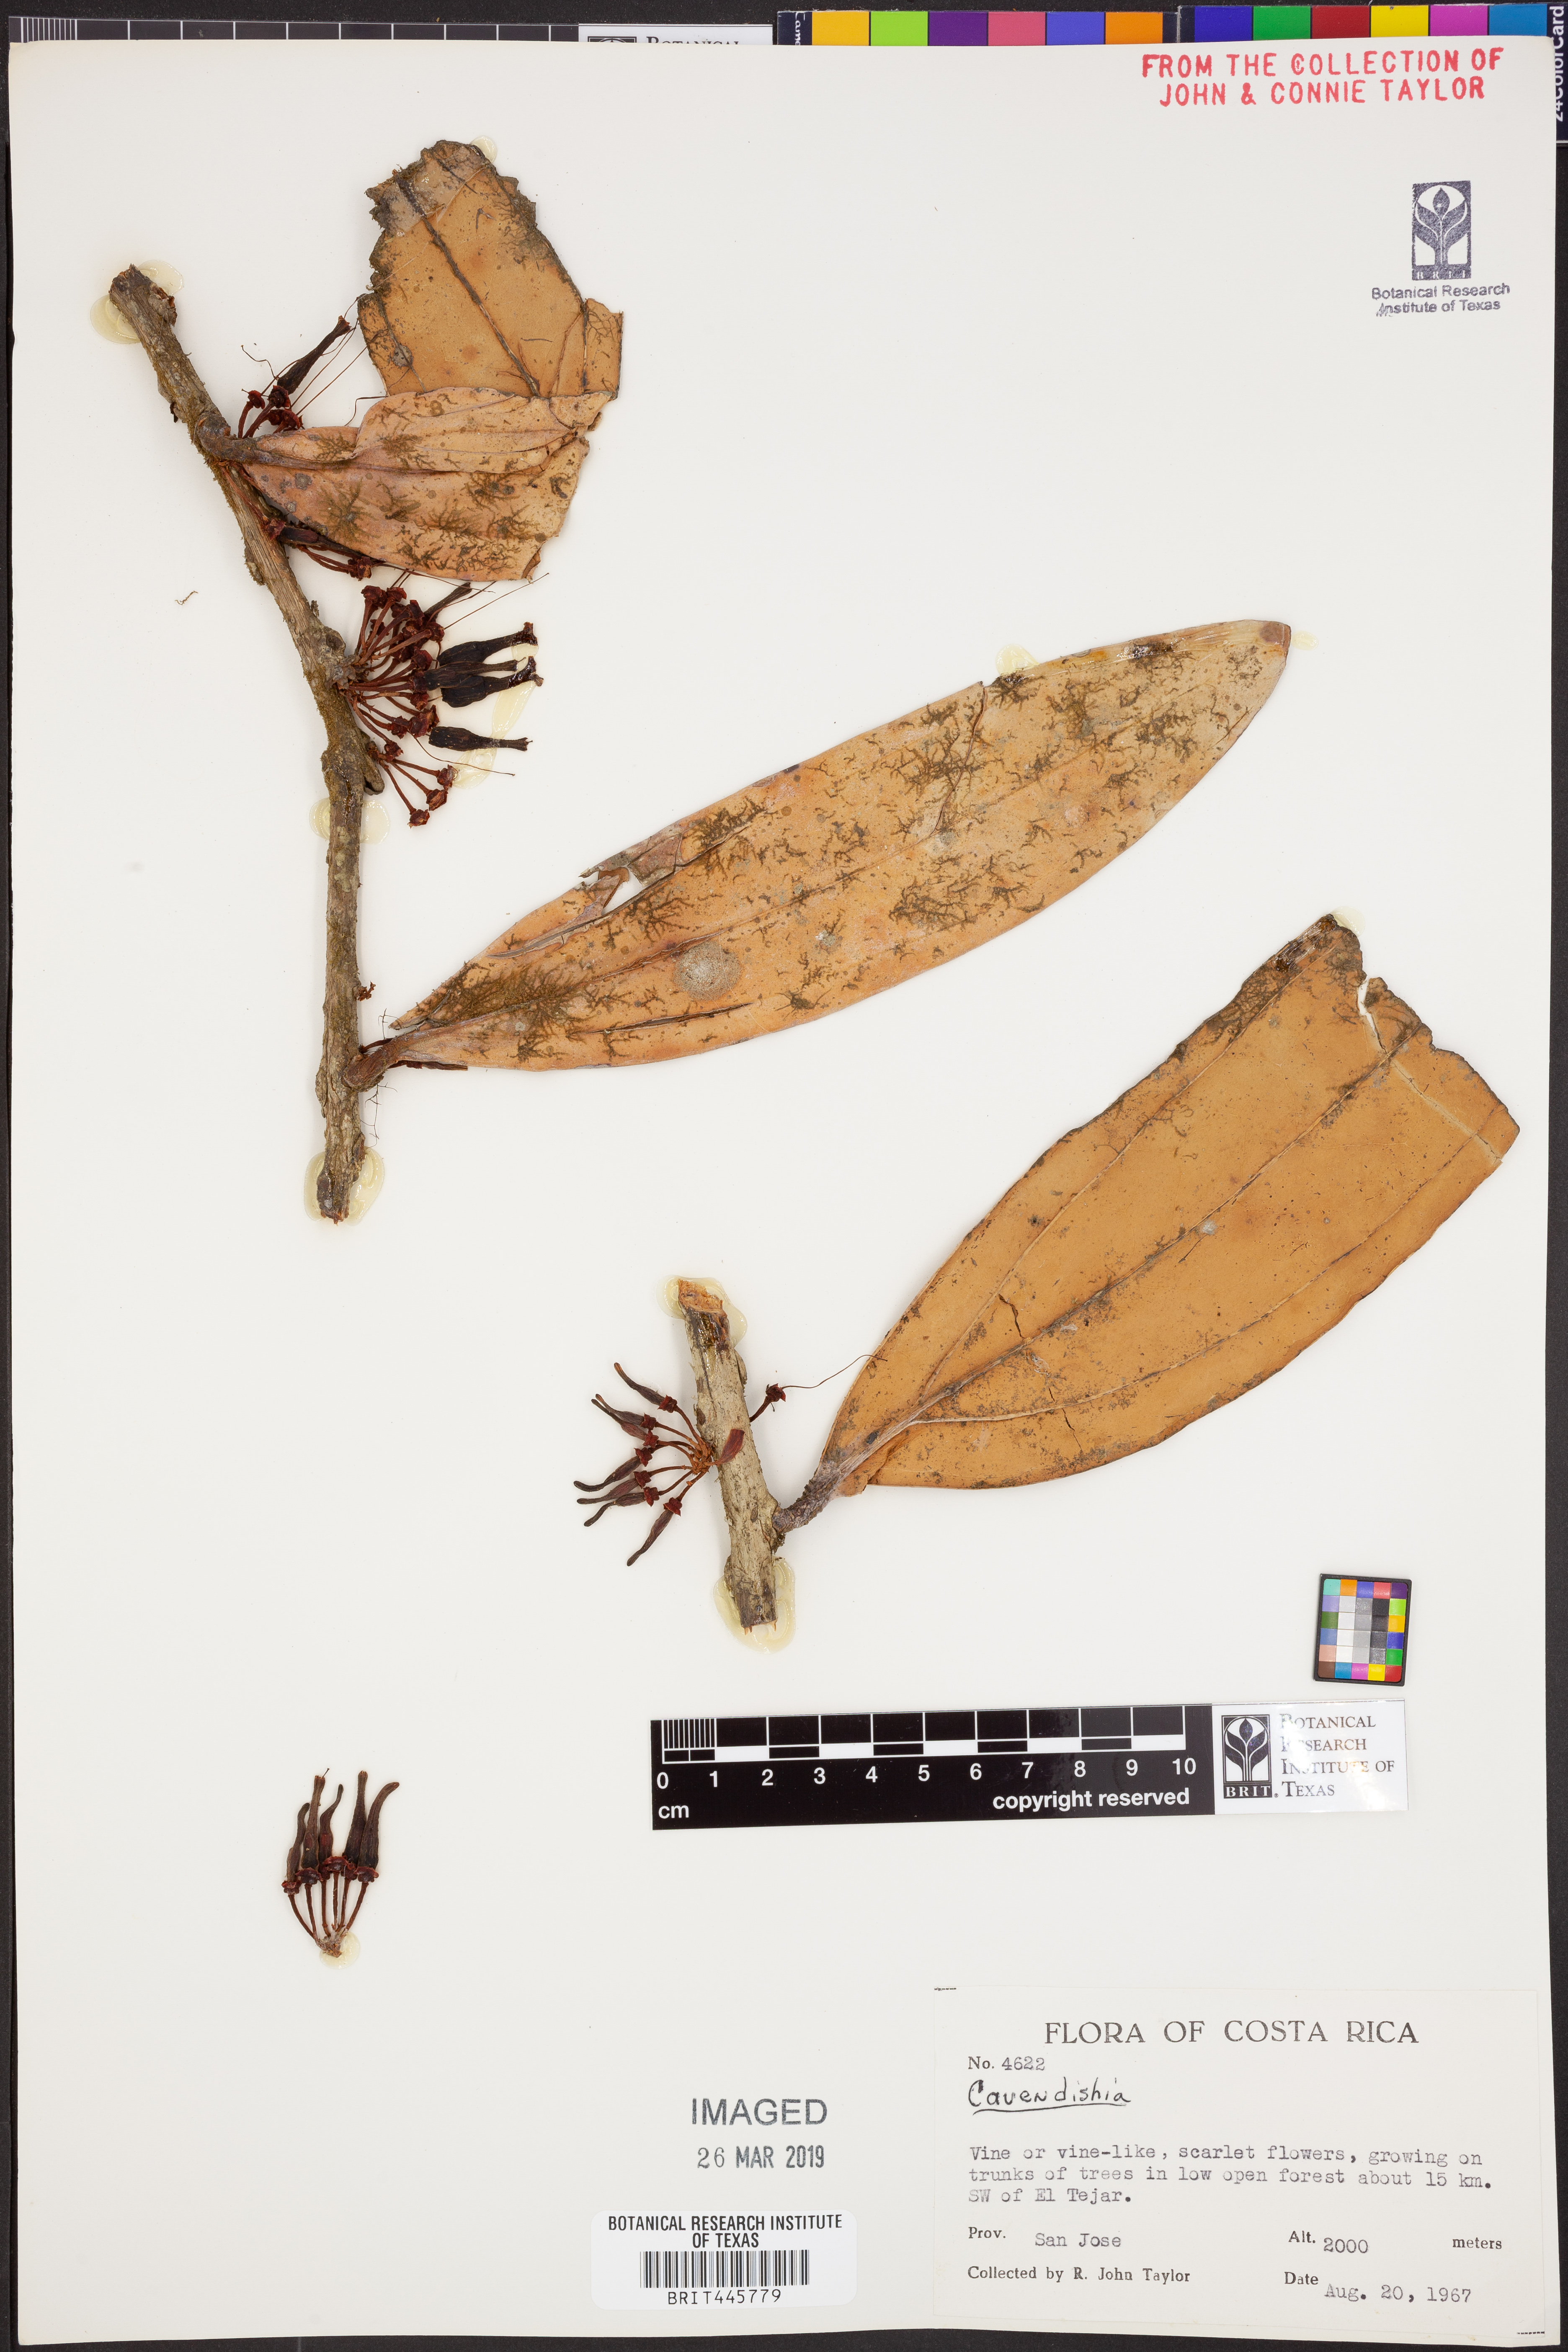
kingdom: Plantae
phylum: Tracheophyta
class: Magnoliopsida
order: Ericales
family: Ericaceae
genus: Cavendishia
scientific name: Cavendishia
